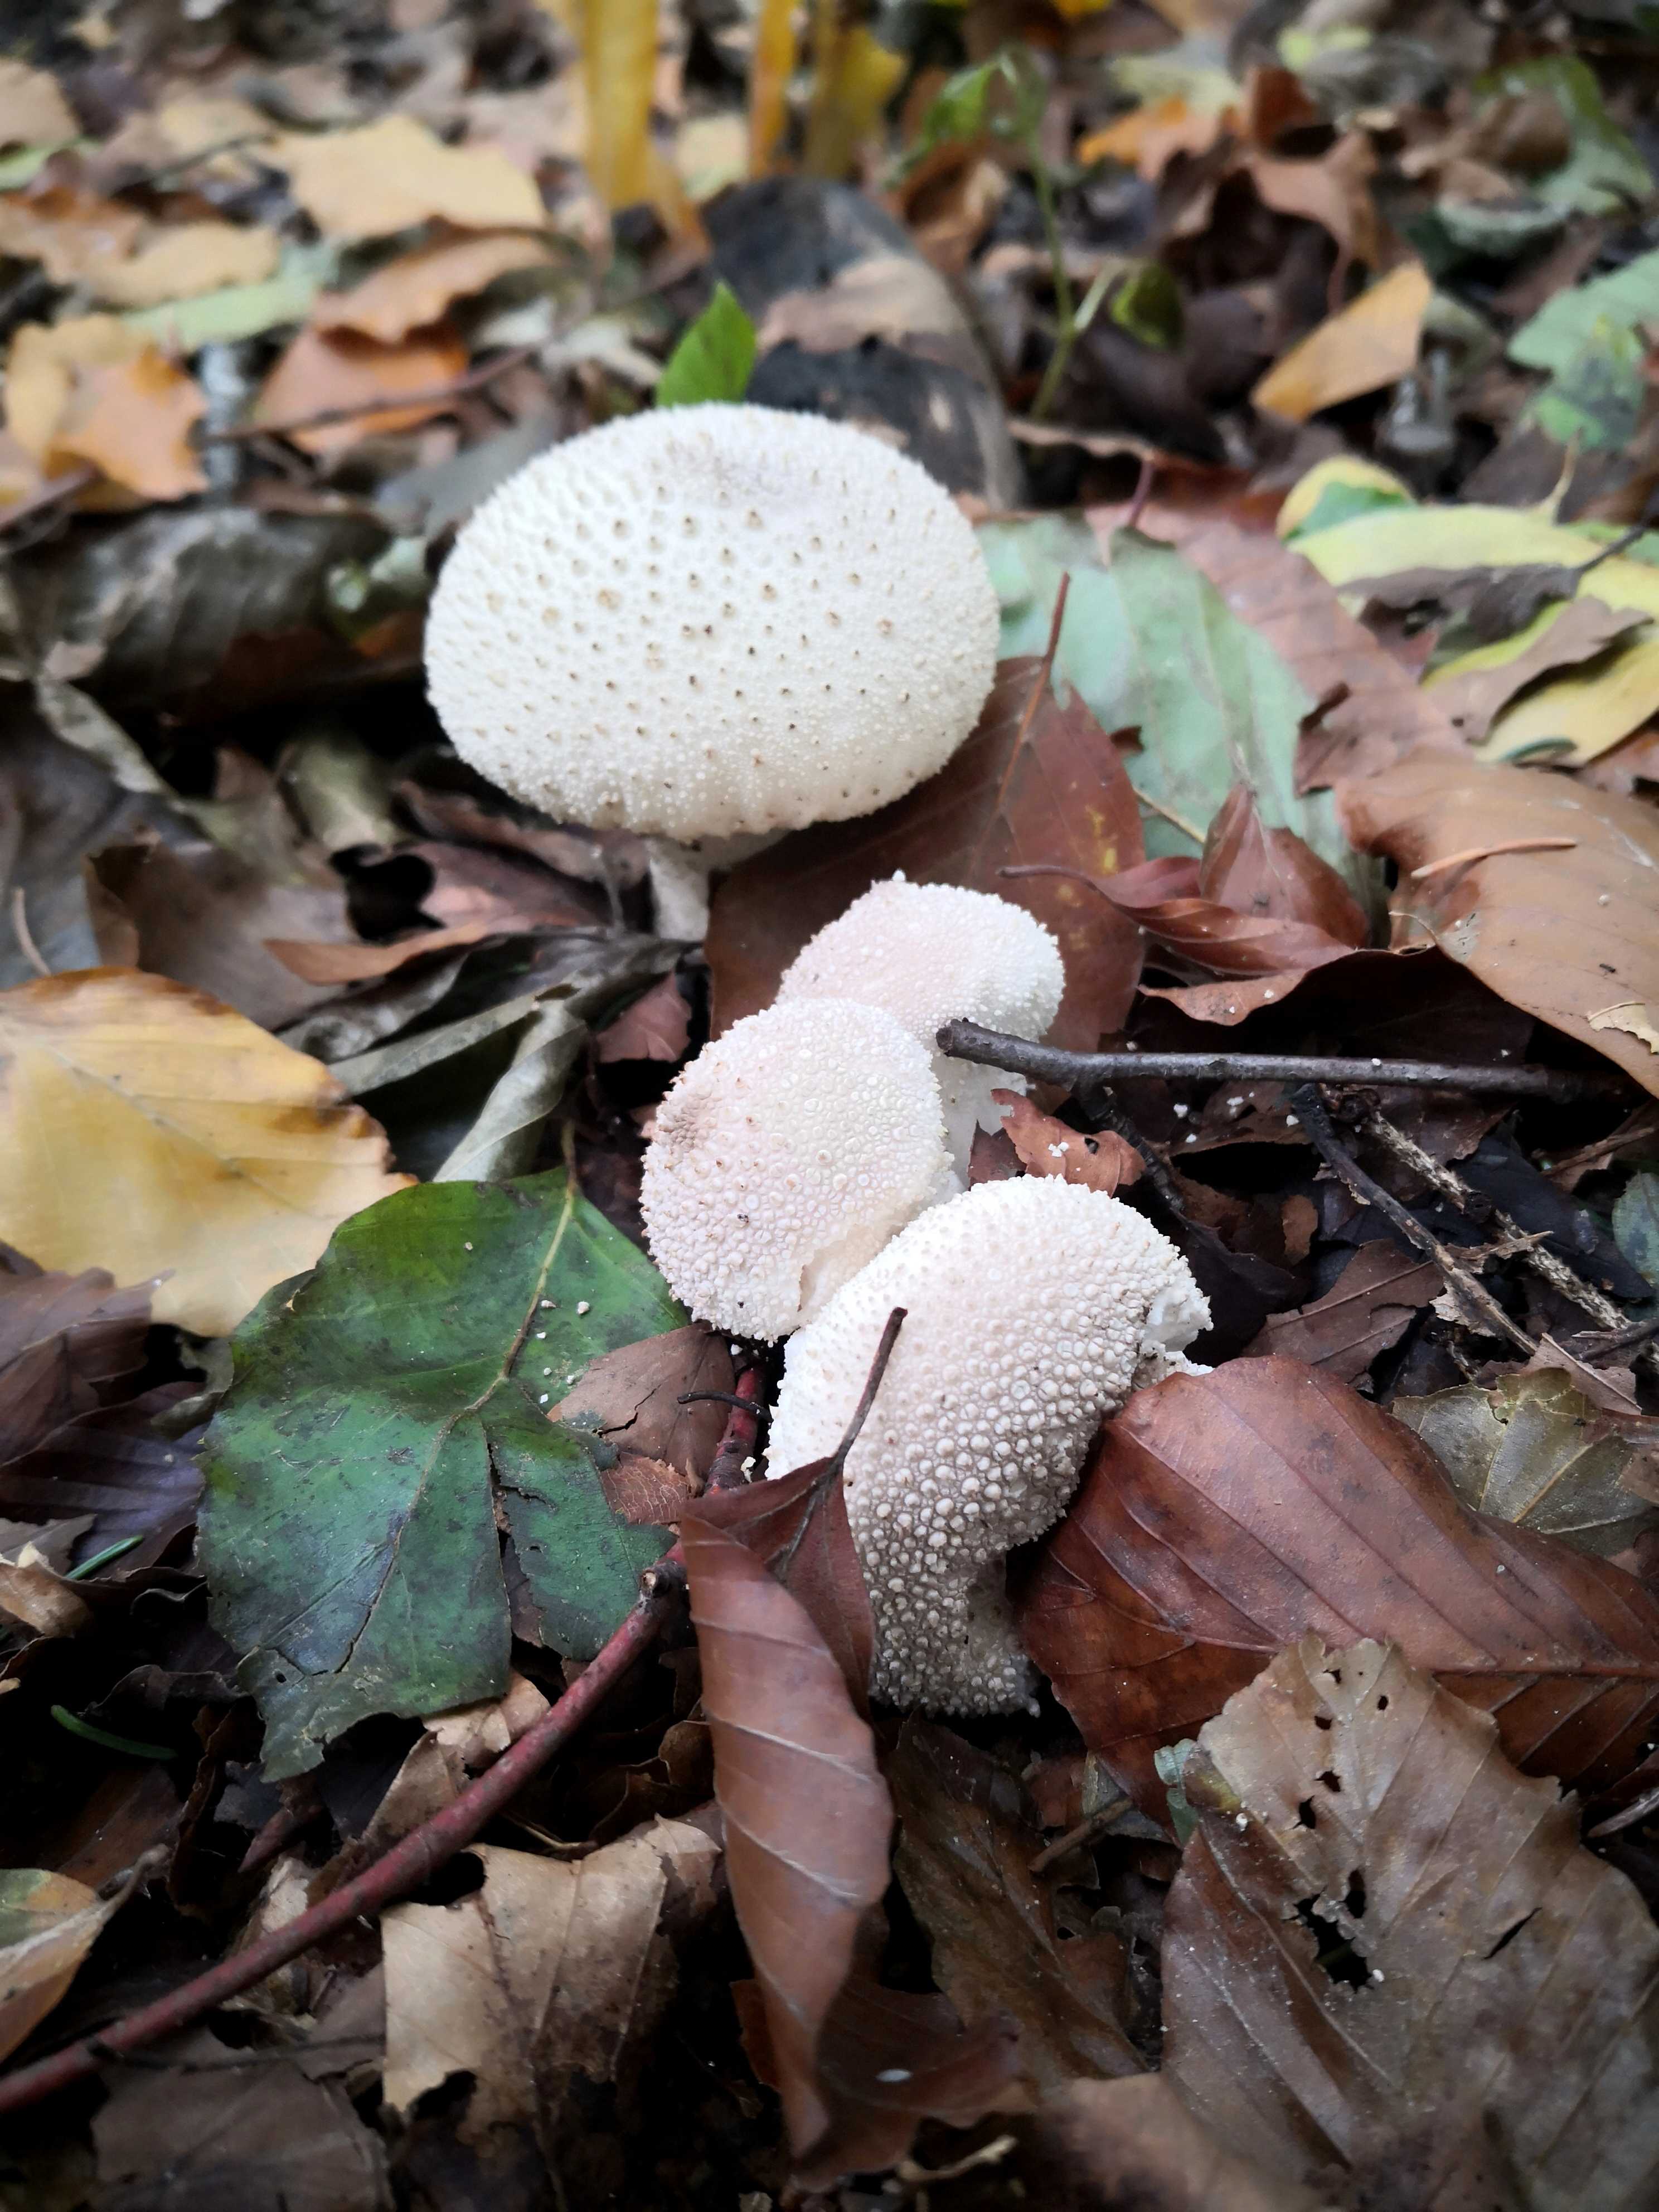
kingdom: Fungi
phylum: Basidiomycota
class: Agaricomycetes
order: Agaricales
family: Lycoperdaceae
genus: Lycoperdon
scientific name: Lycoperdon perlatum
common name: krystal-støvbold
